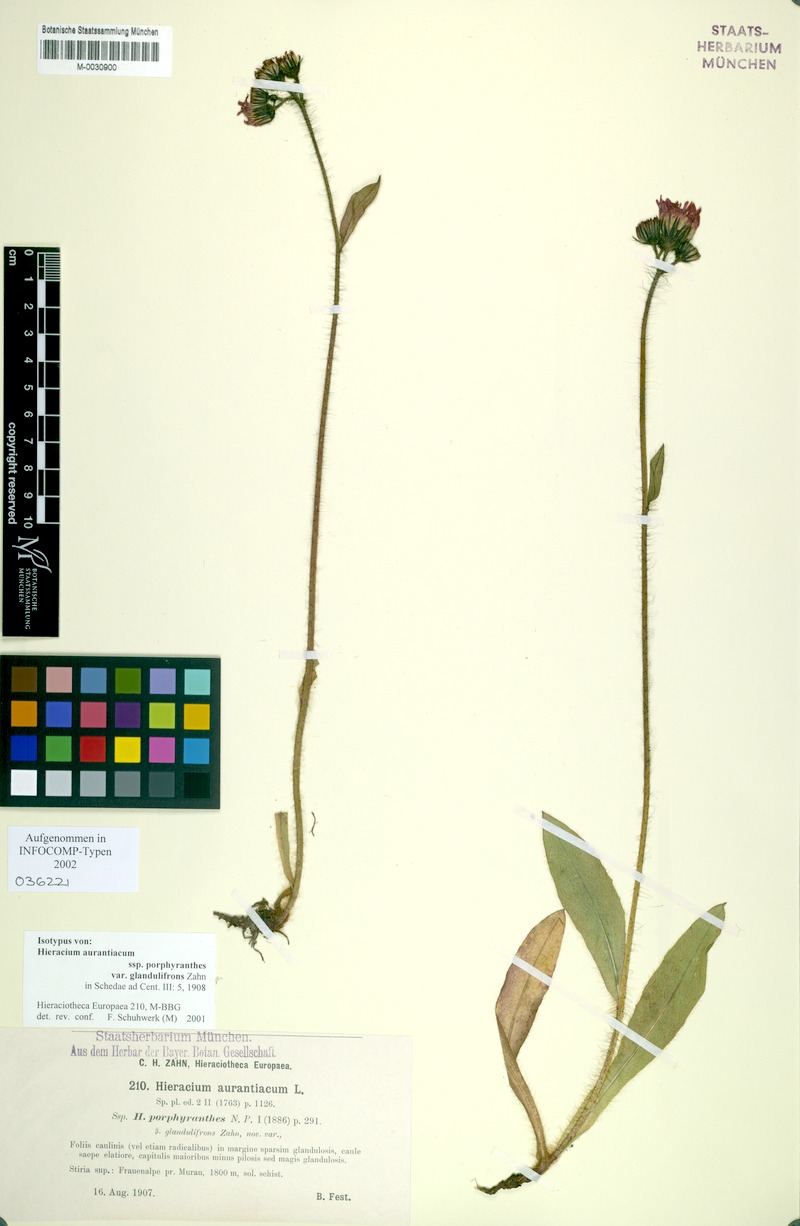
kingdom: Plantae
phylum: Tracheophyta
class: Magnoliopsida
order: Asterales
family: Asteraceae
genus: Pilosella
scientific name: Pilosella aurantiaca
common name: Fox-and-cubs
